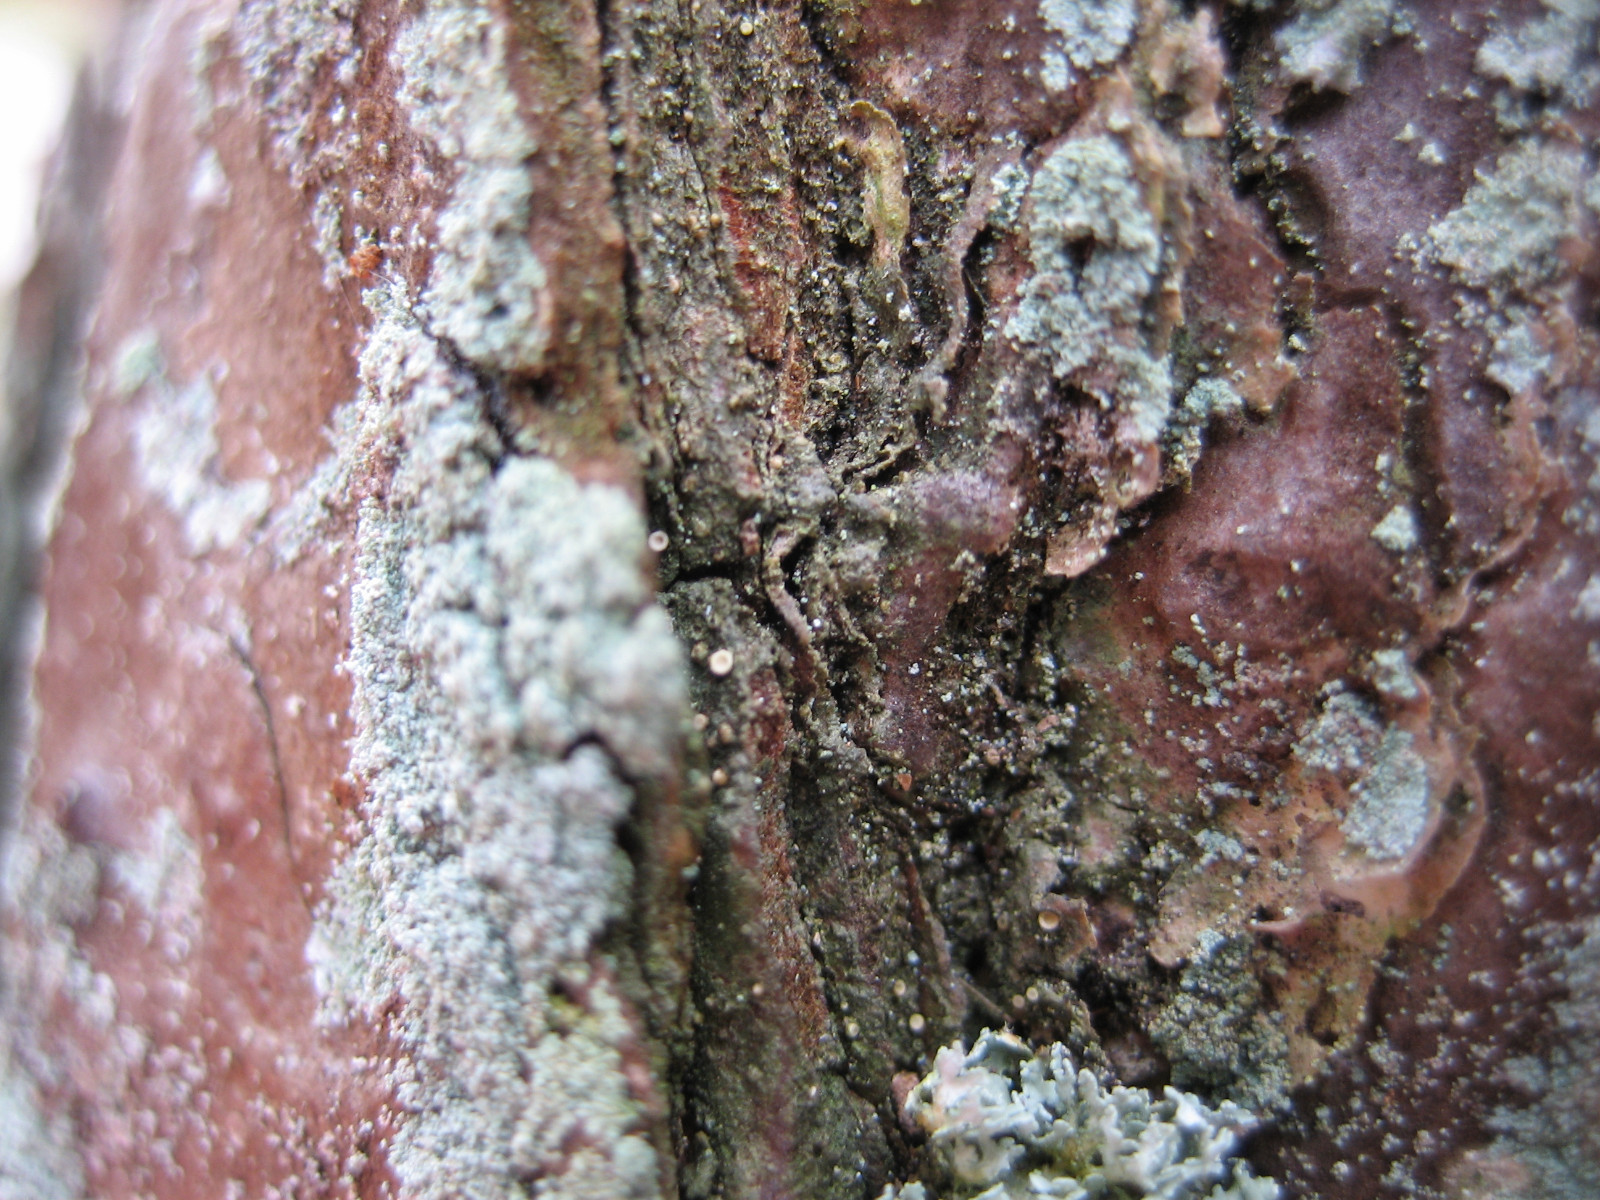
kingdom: Fungi
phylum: Ascomycota
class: Lecanoromycetes
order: Ostropales
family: Coenogoniaceae
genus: Coenogonium
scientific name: Coenogonium pineti
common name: liden vokslav
